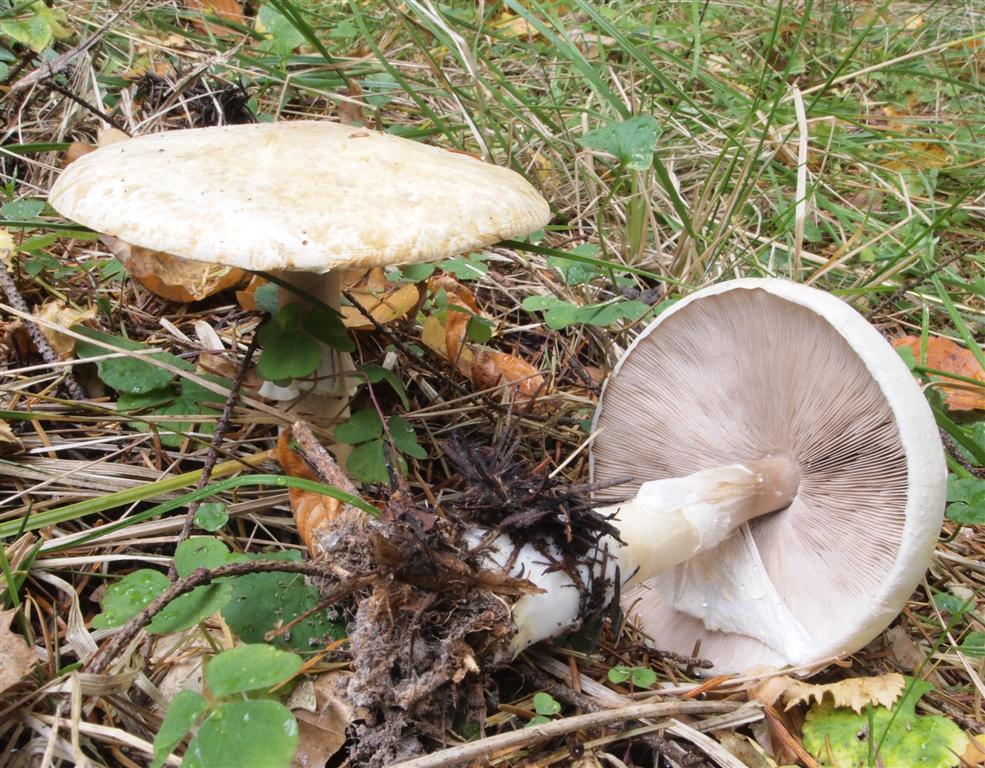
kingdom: Fungi
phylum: Basidiomycota
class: Agaricomycetes
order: Agaricales
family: Agaricaceae
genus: Agaricus
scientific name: Agaricus sylvicola
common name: skiveknoldet champignon
